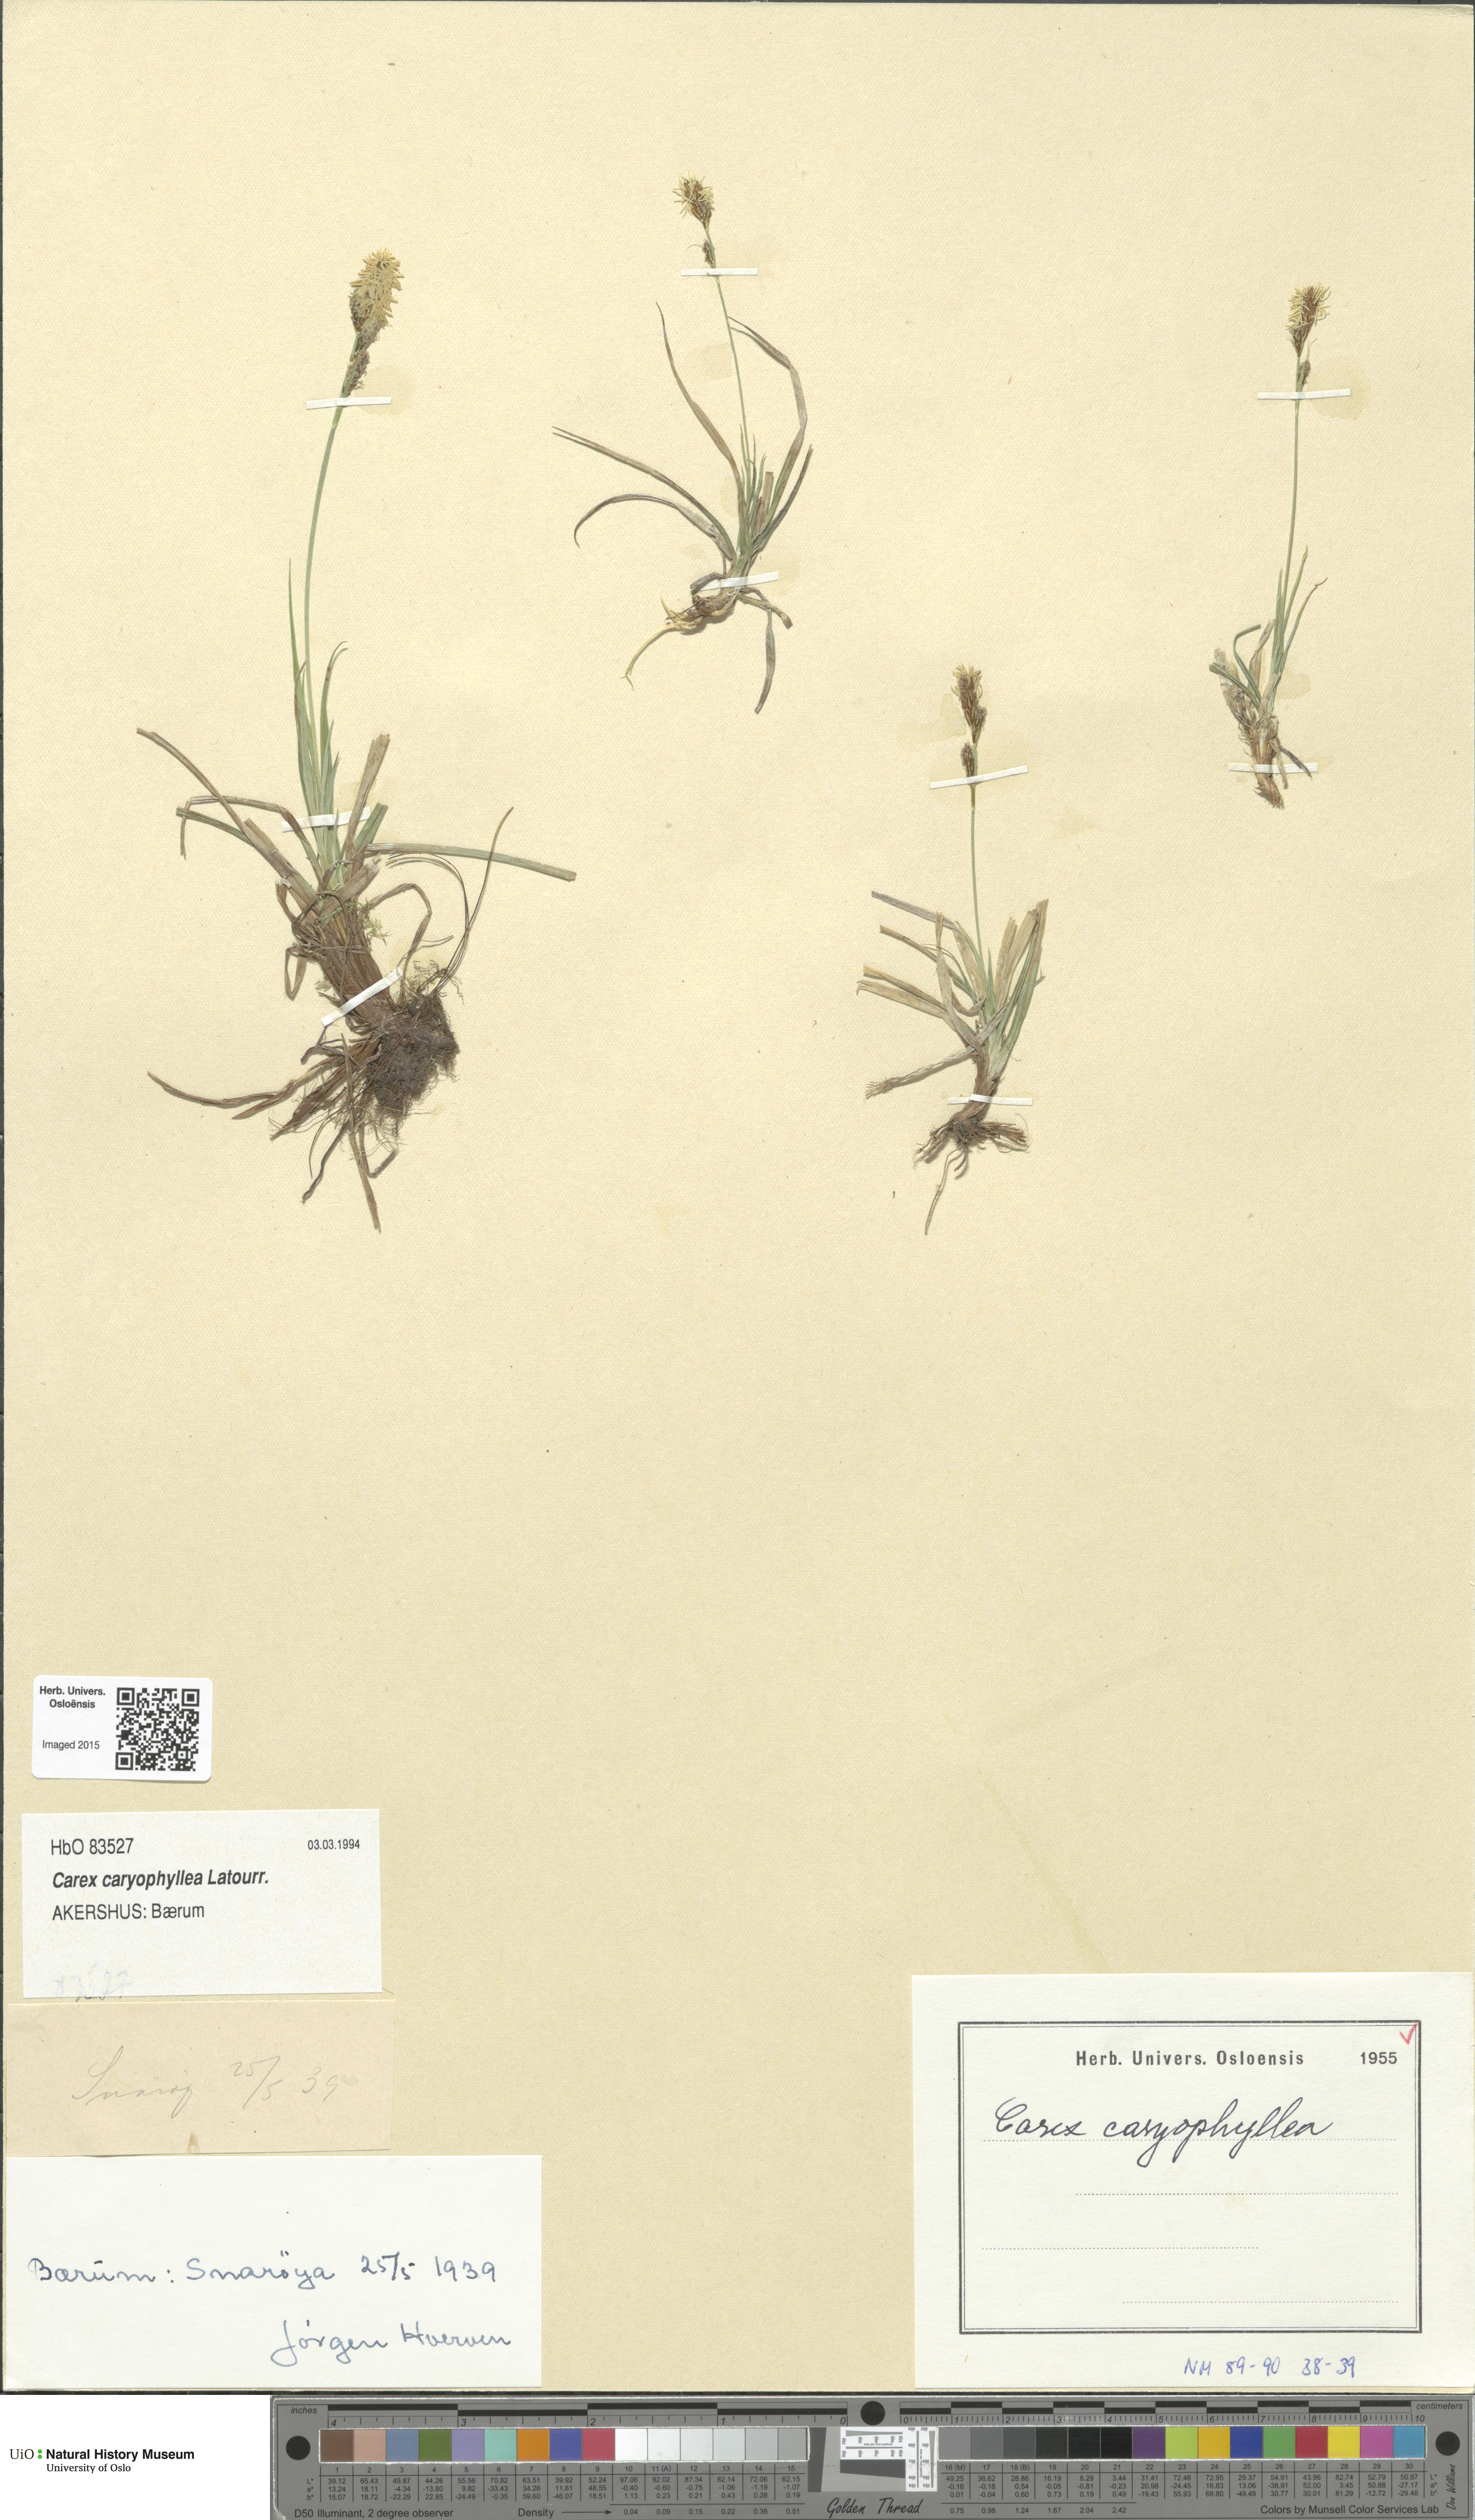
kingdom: Plantae
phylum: Tracheophyta
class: Liliopsida
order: Poales
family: Cyperaceae
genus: Carex
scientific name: Carex caryophyllea
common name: Spring sedge
